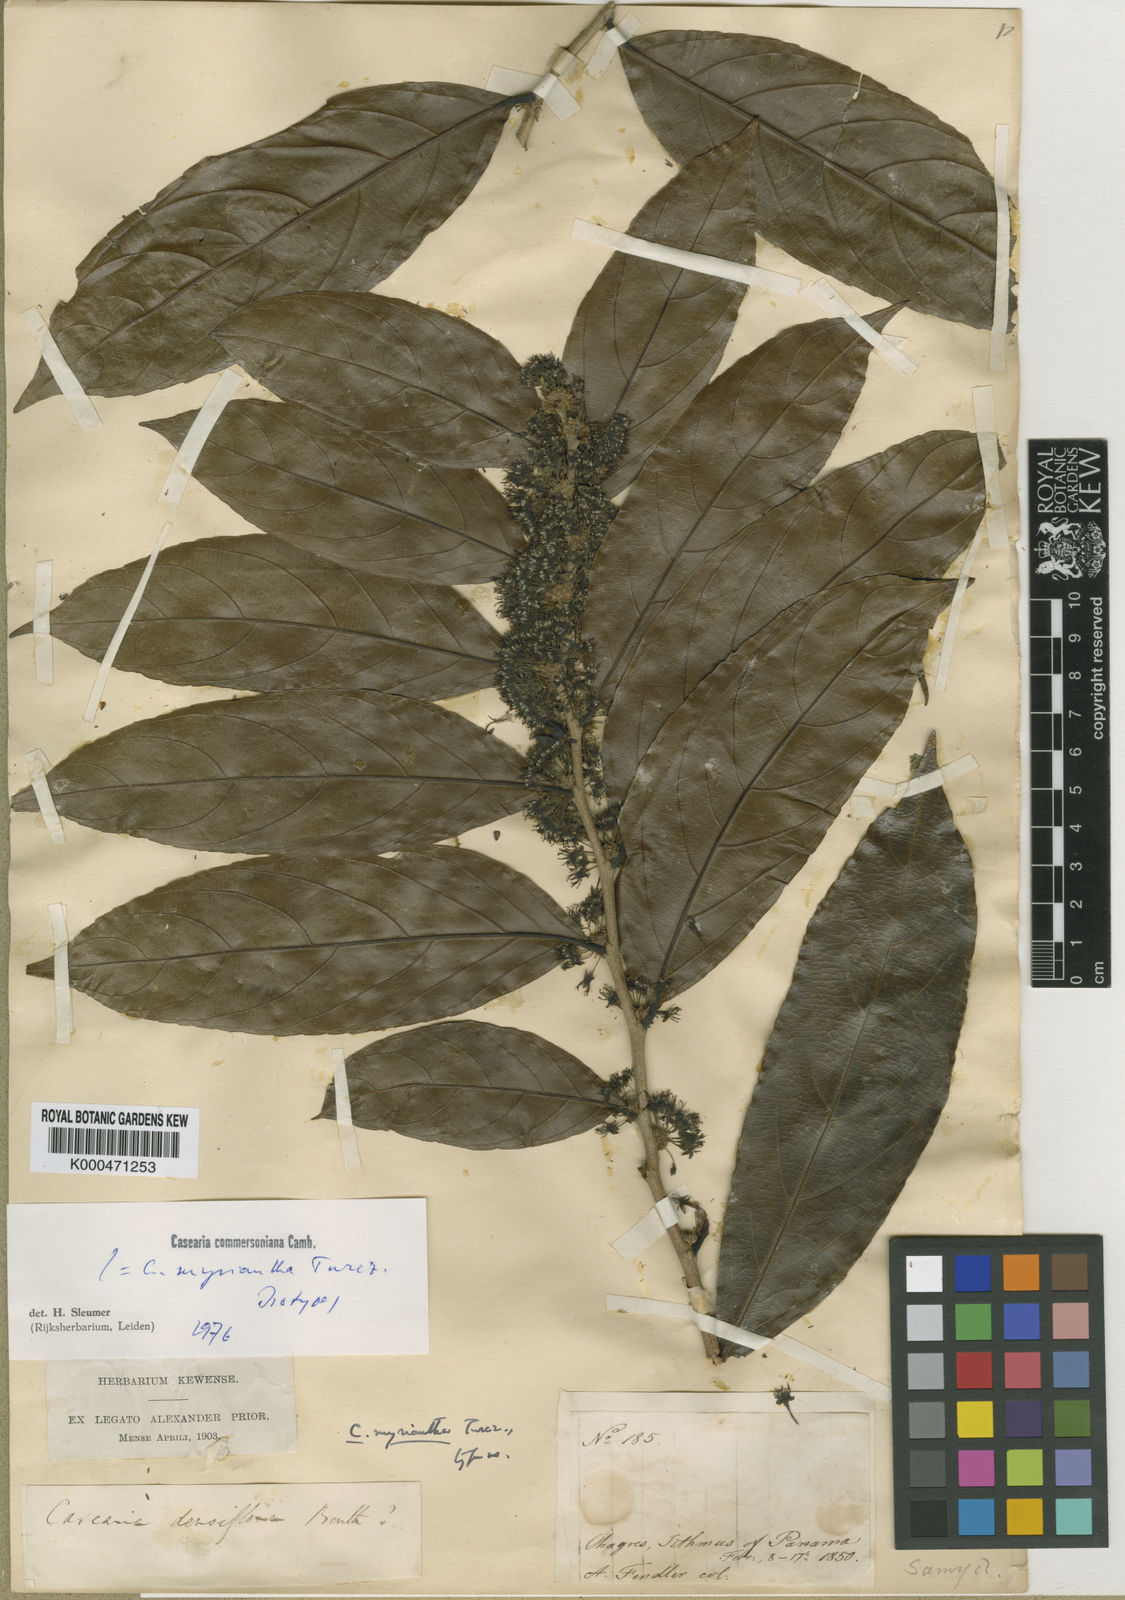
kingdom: Plantae
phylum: Tracheophyta
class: Magnoliopsida
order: Malpighiales
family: Salicaceae
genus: Piparea
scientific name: Piparea dentata
